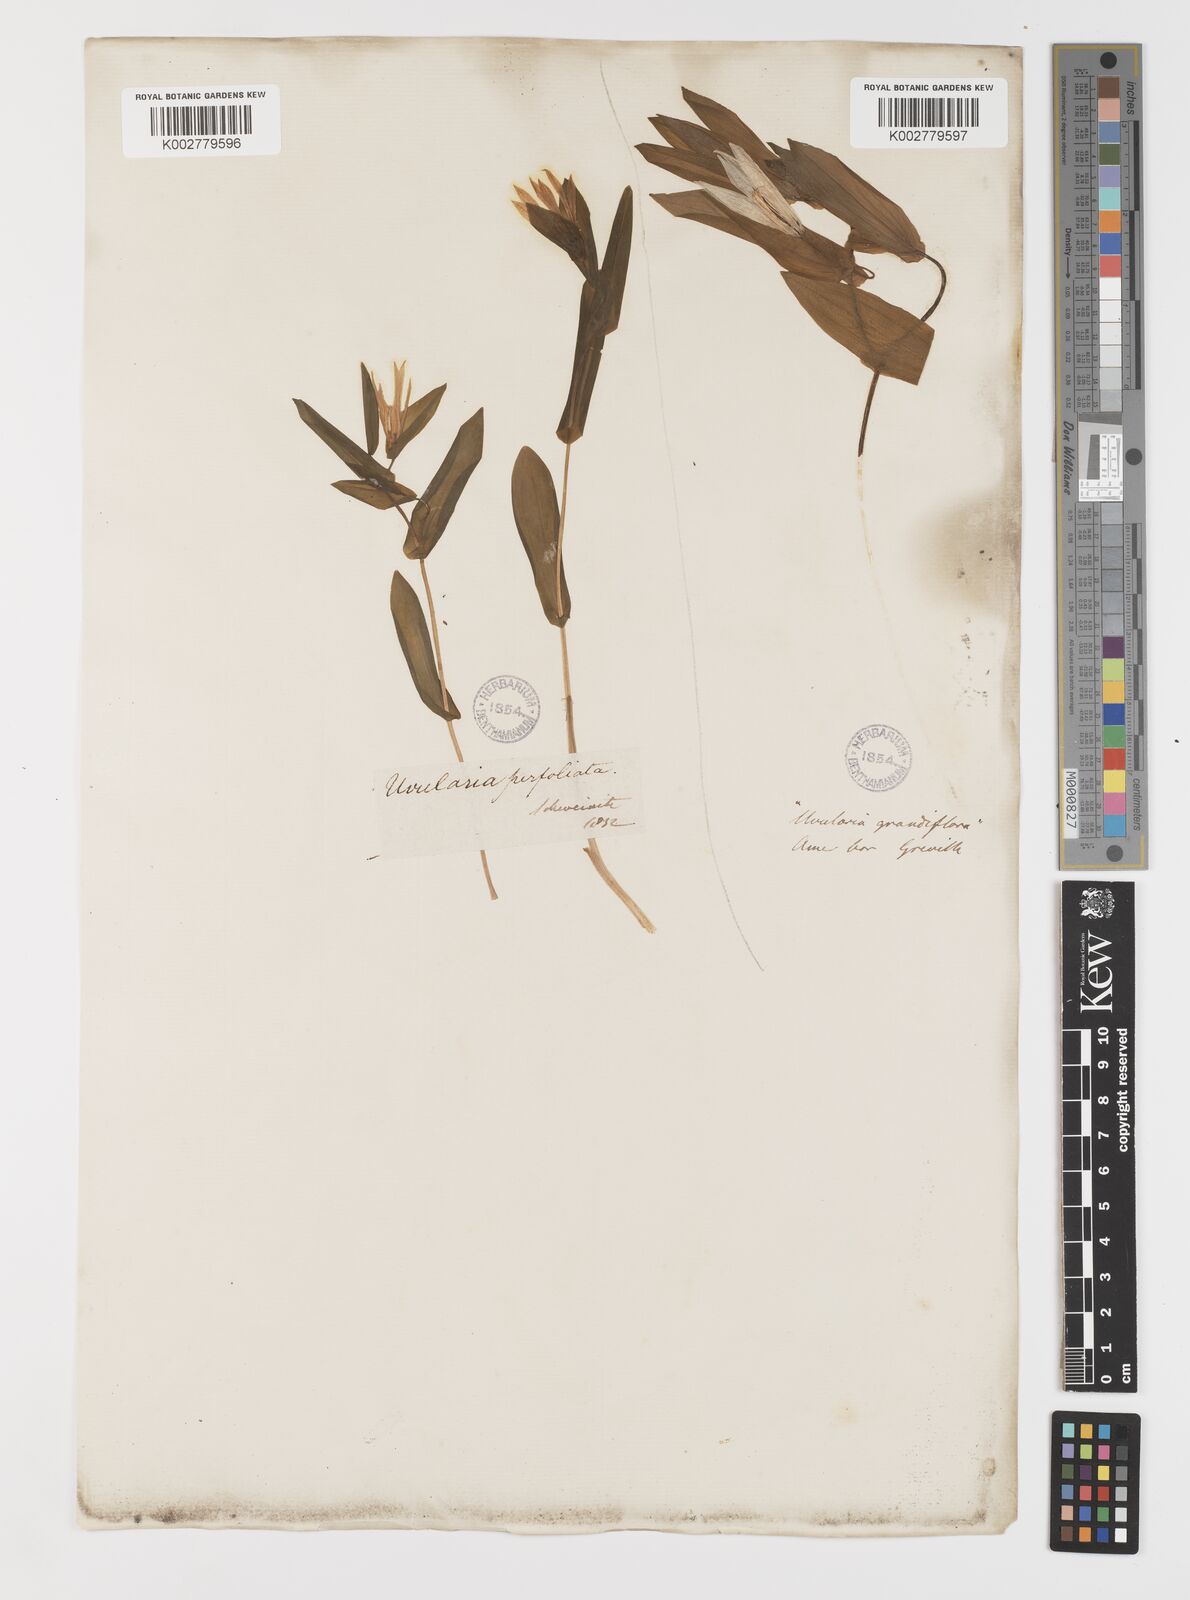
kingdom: Plantae
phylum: Tracheophyta
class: Liliopsida
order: Liliales
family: Colchicaceae
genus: Uvularia
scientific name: Uvularia perfoliata
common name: Perfoliate bellwort
